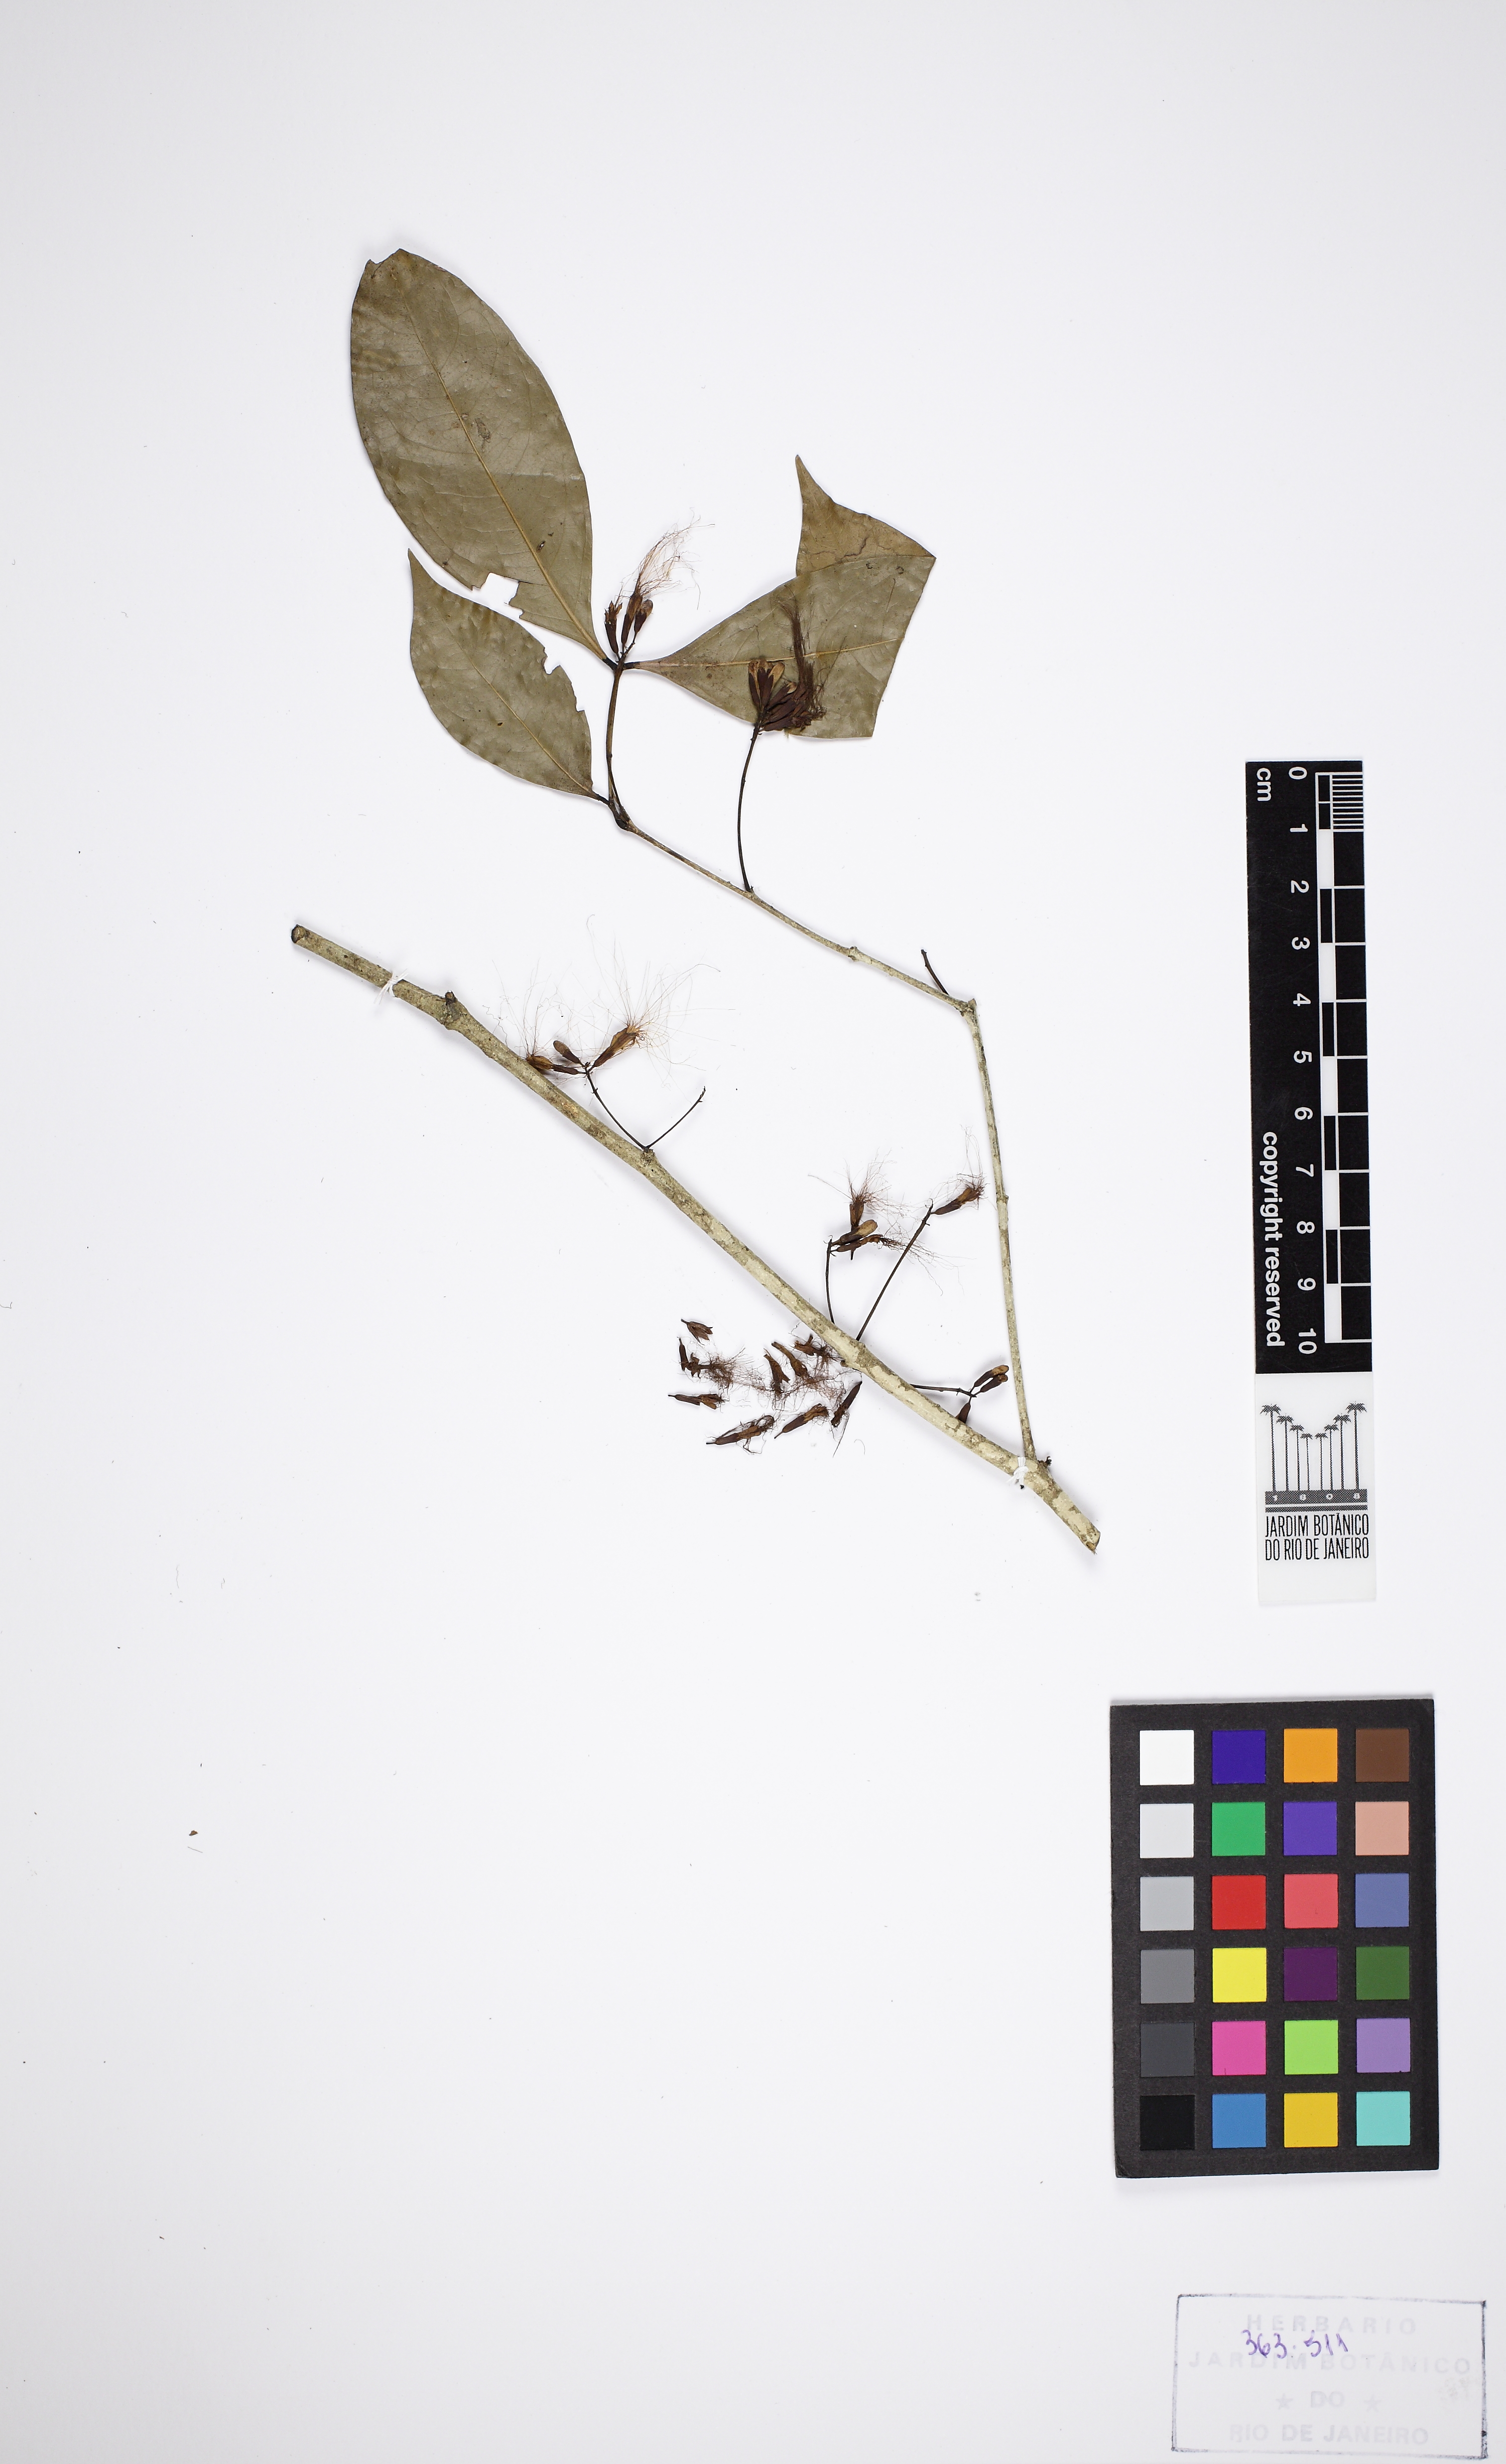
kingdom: Plantae
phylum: Tracheophyta
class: Magnoliopsida
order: Fabales
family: Fabaceae
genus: Inga
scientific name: Inga capitata
